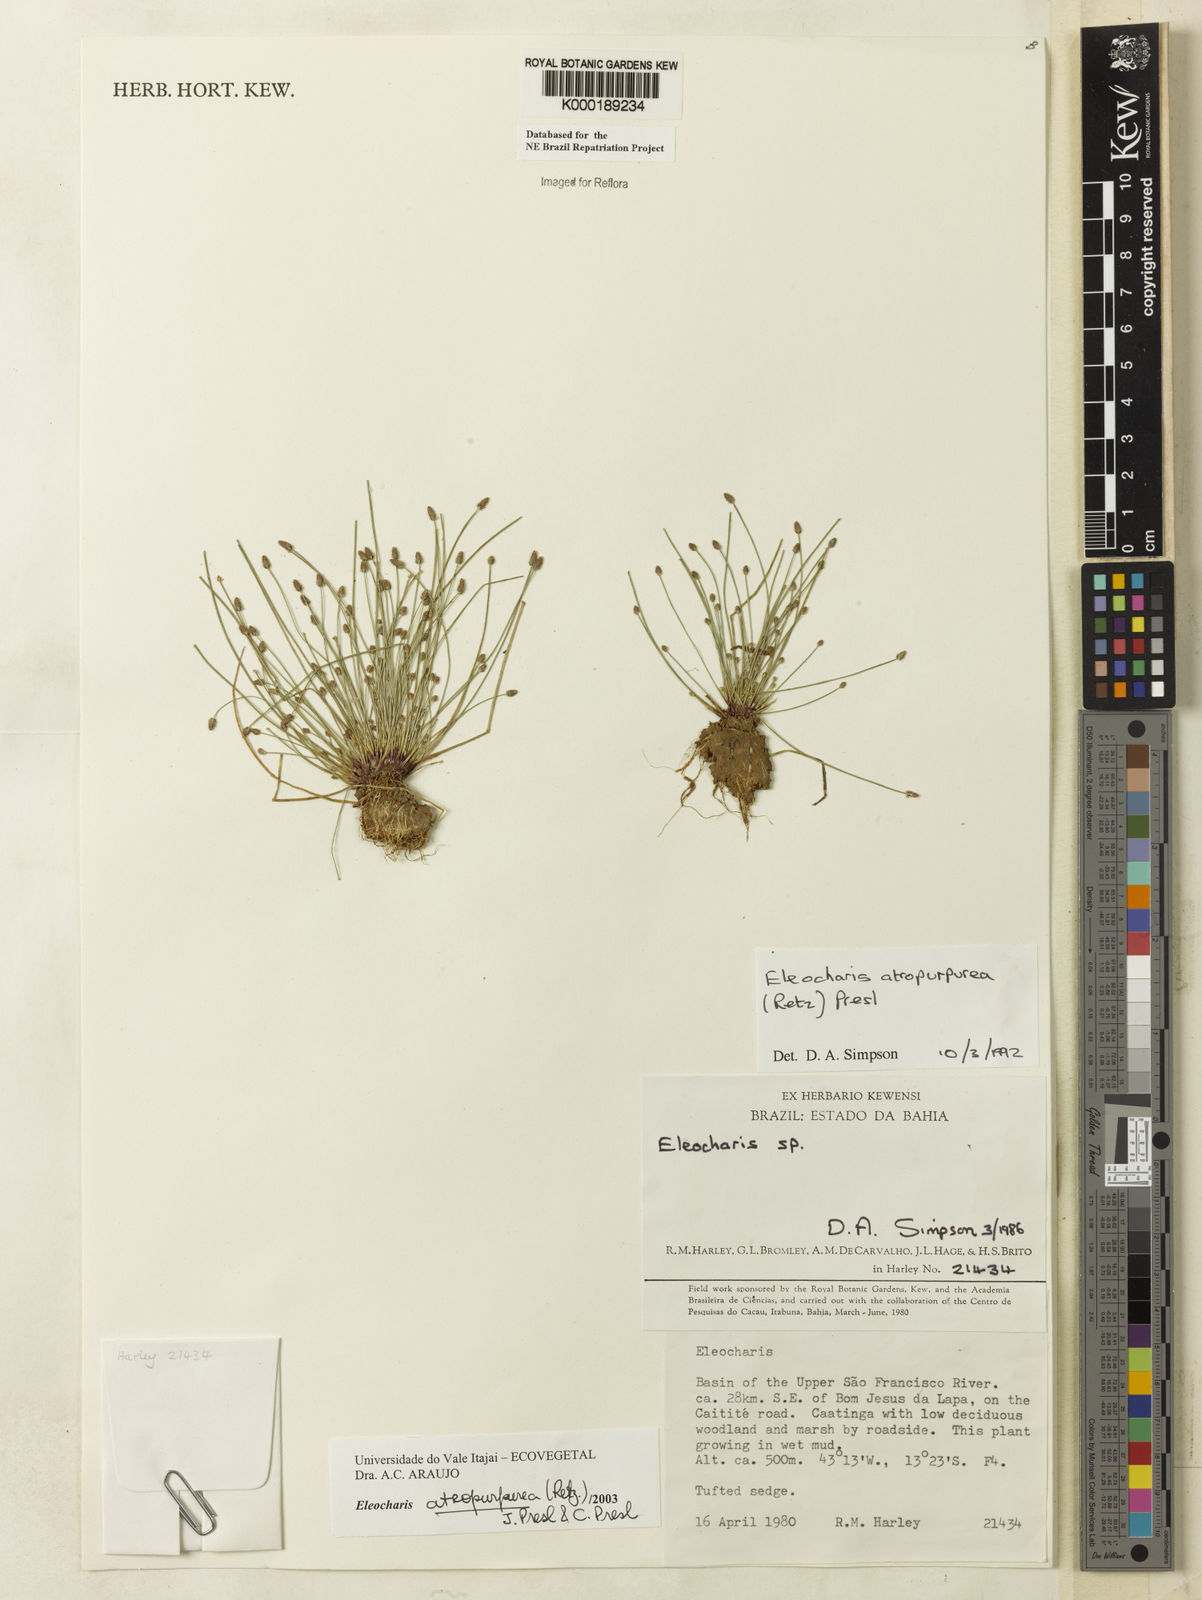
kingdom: Plantae
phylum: Tracheophyta
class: Liliopsida
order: Poales
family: Cyperaceae
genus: Eleocharis
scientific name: Eleocharis atropurpurea
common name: Purple spikerush
